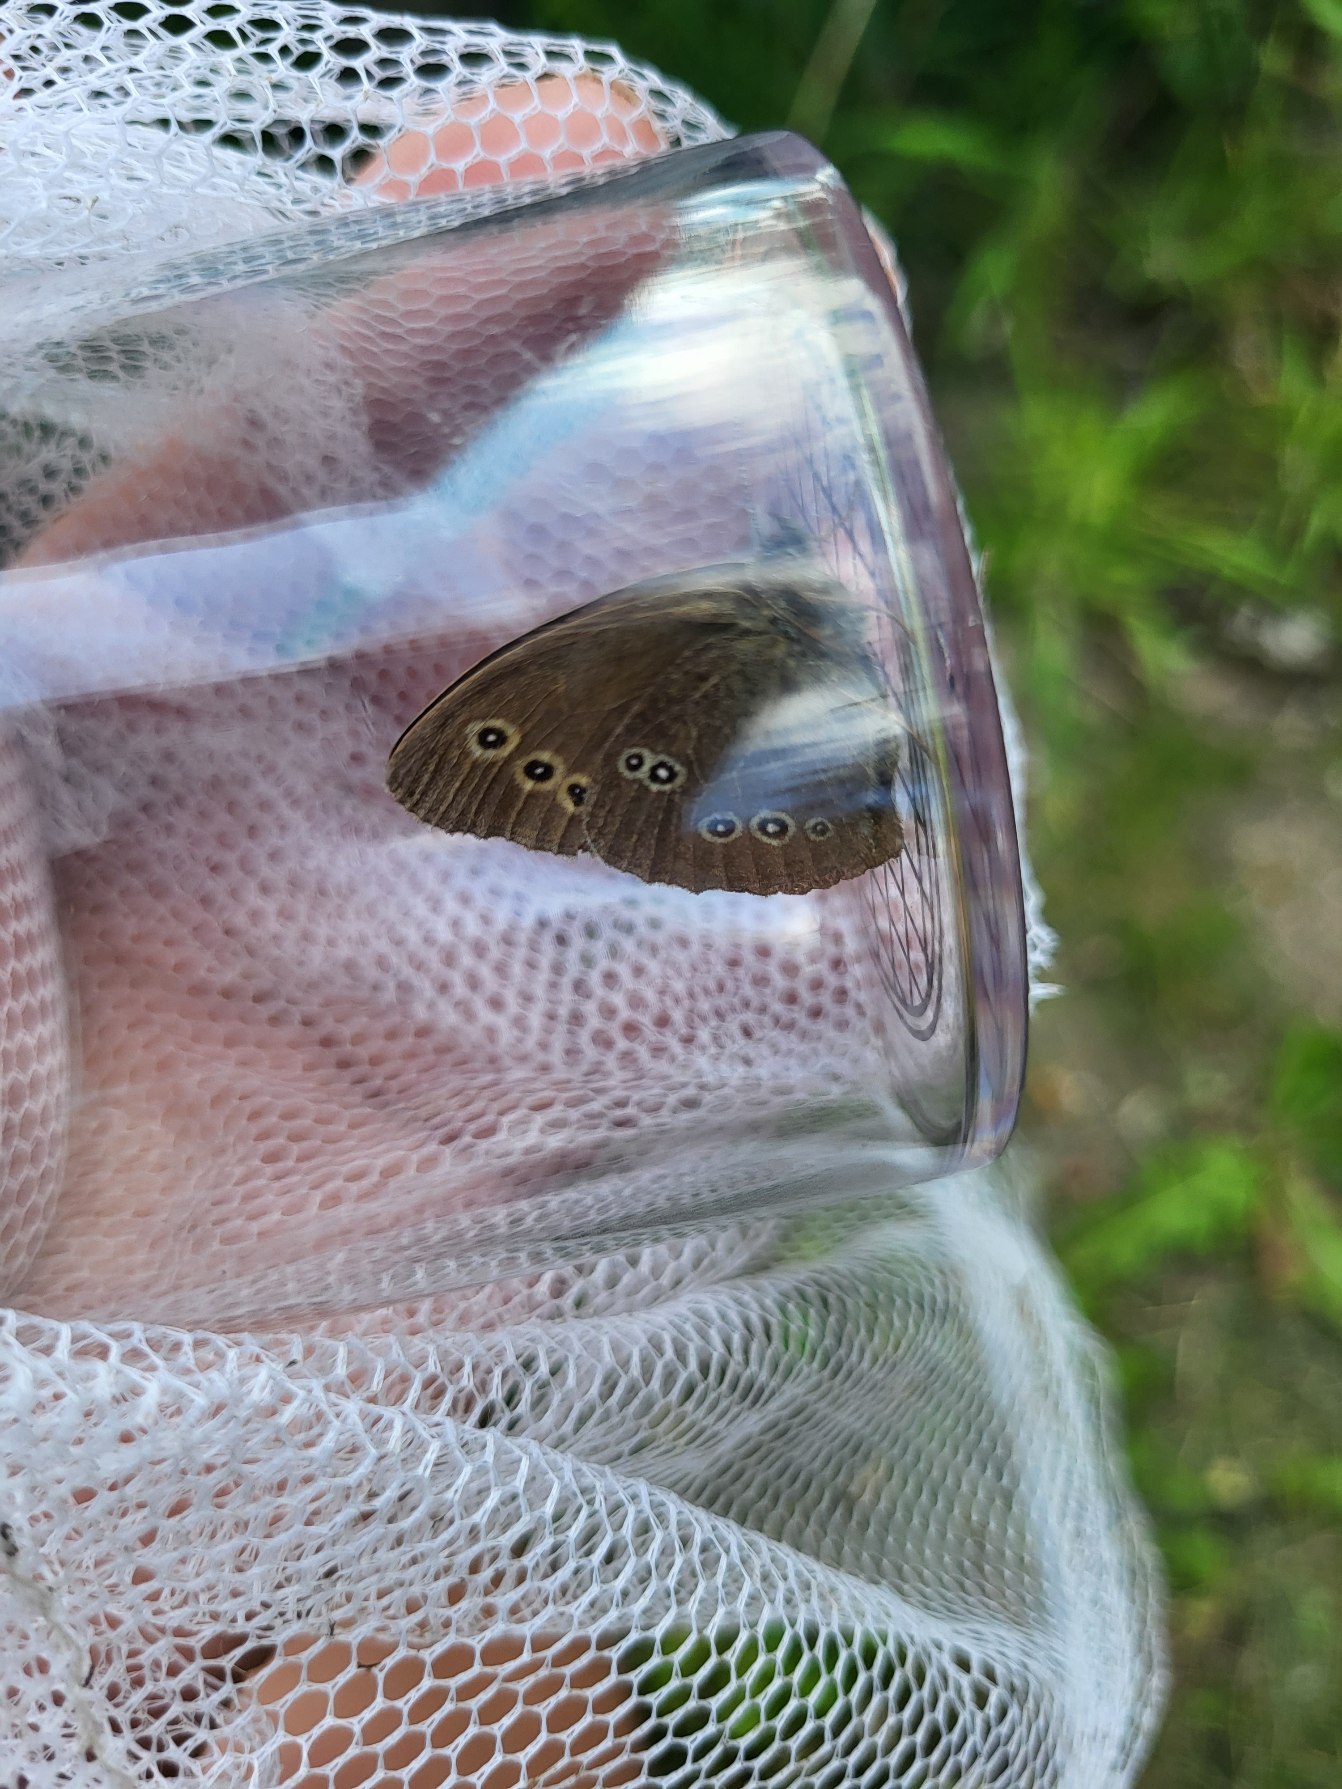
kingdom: Animalia
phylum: Arthropoda
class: Insecta
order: Lepidoptera
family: Nymphalidae
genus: Aphantopus
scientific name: Aphantopus hyperantus
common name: Engrandøje
